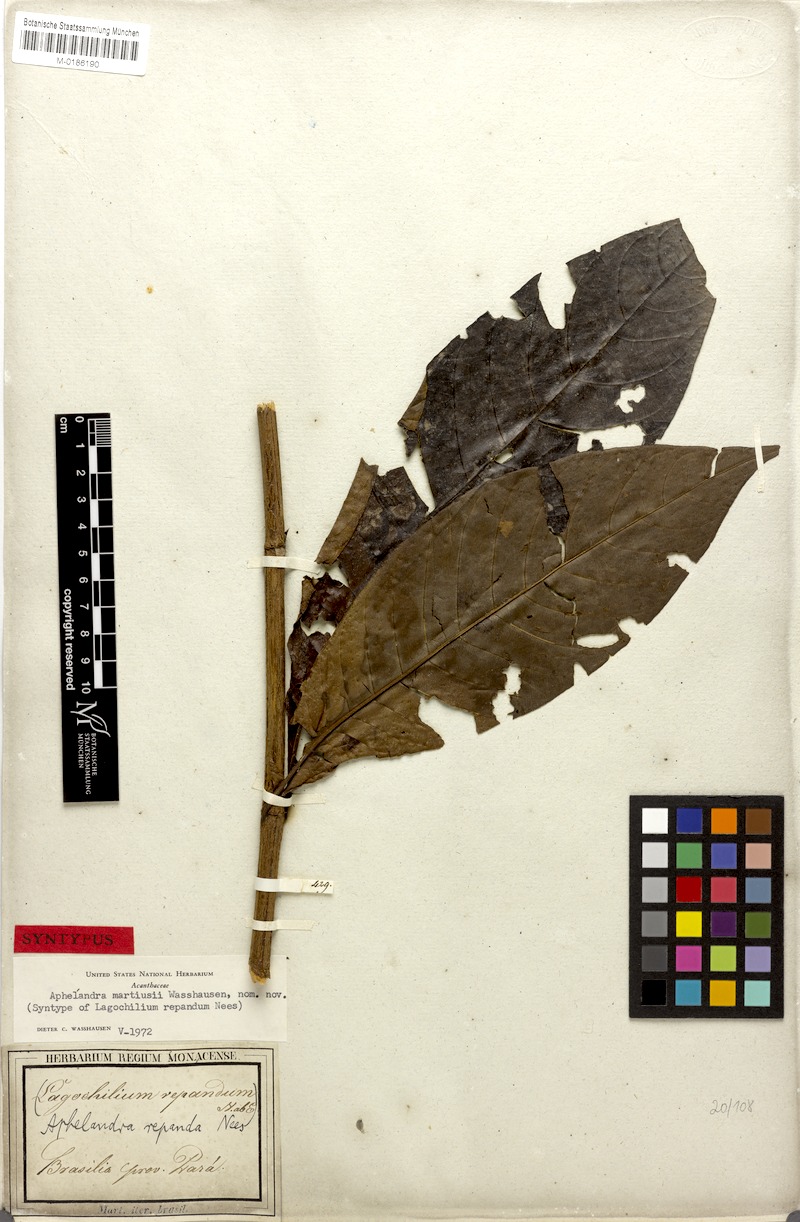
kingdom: Plantae
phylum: Tracheophyta
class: Magnoliopsida
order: Lamiales
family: Acanthaceae
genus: Aphelandra
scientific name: Aphelandra martiusii
